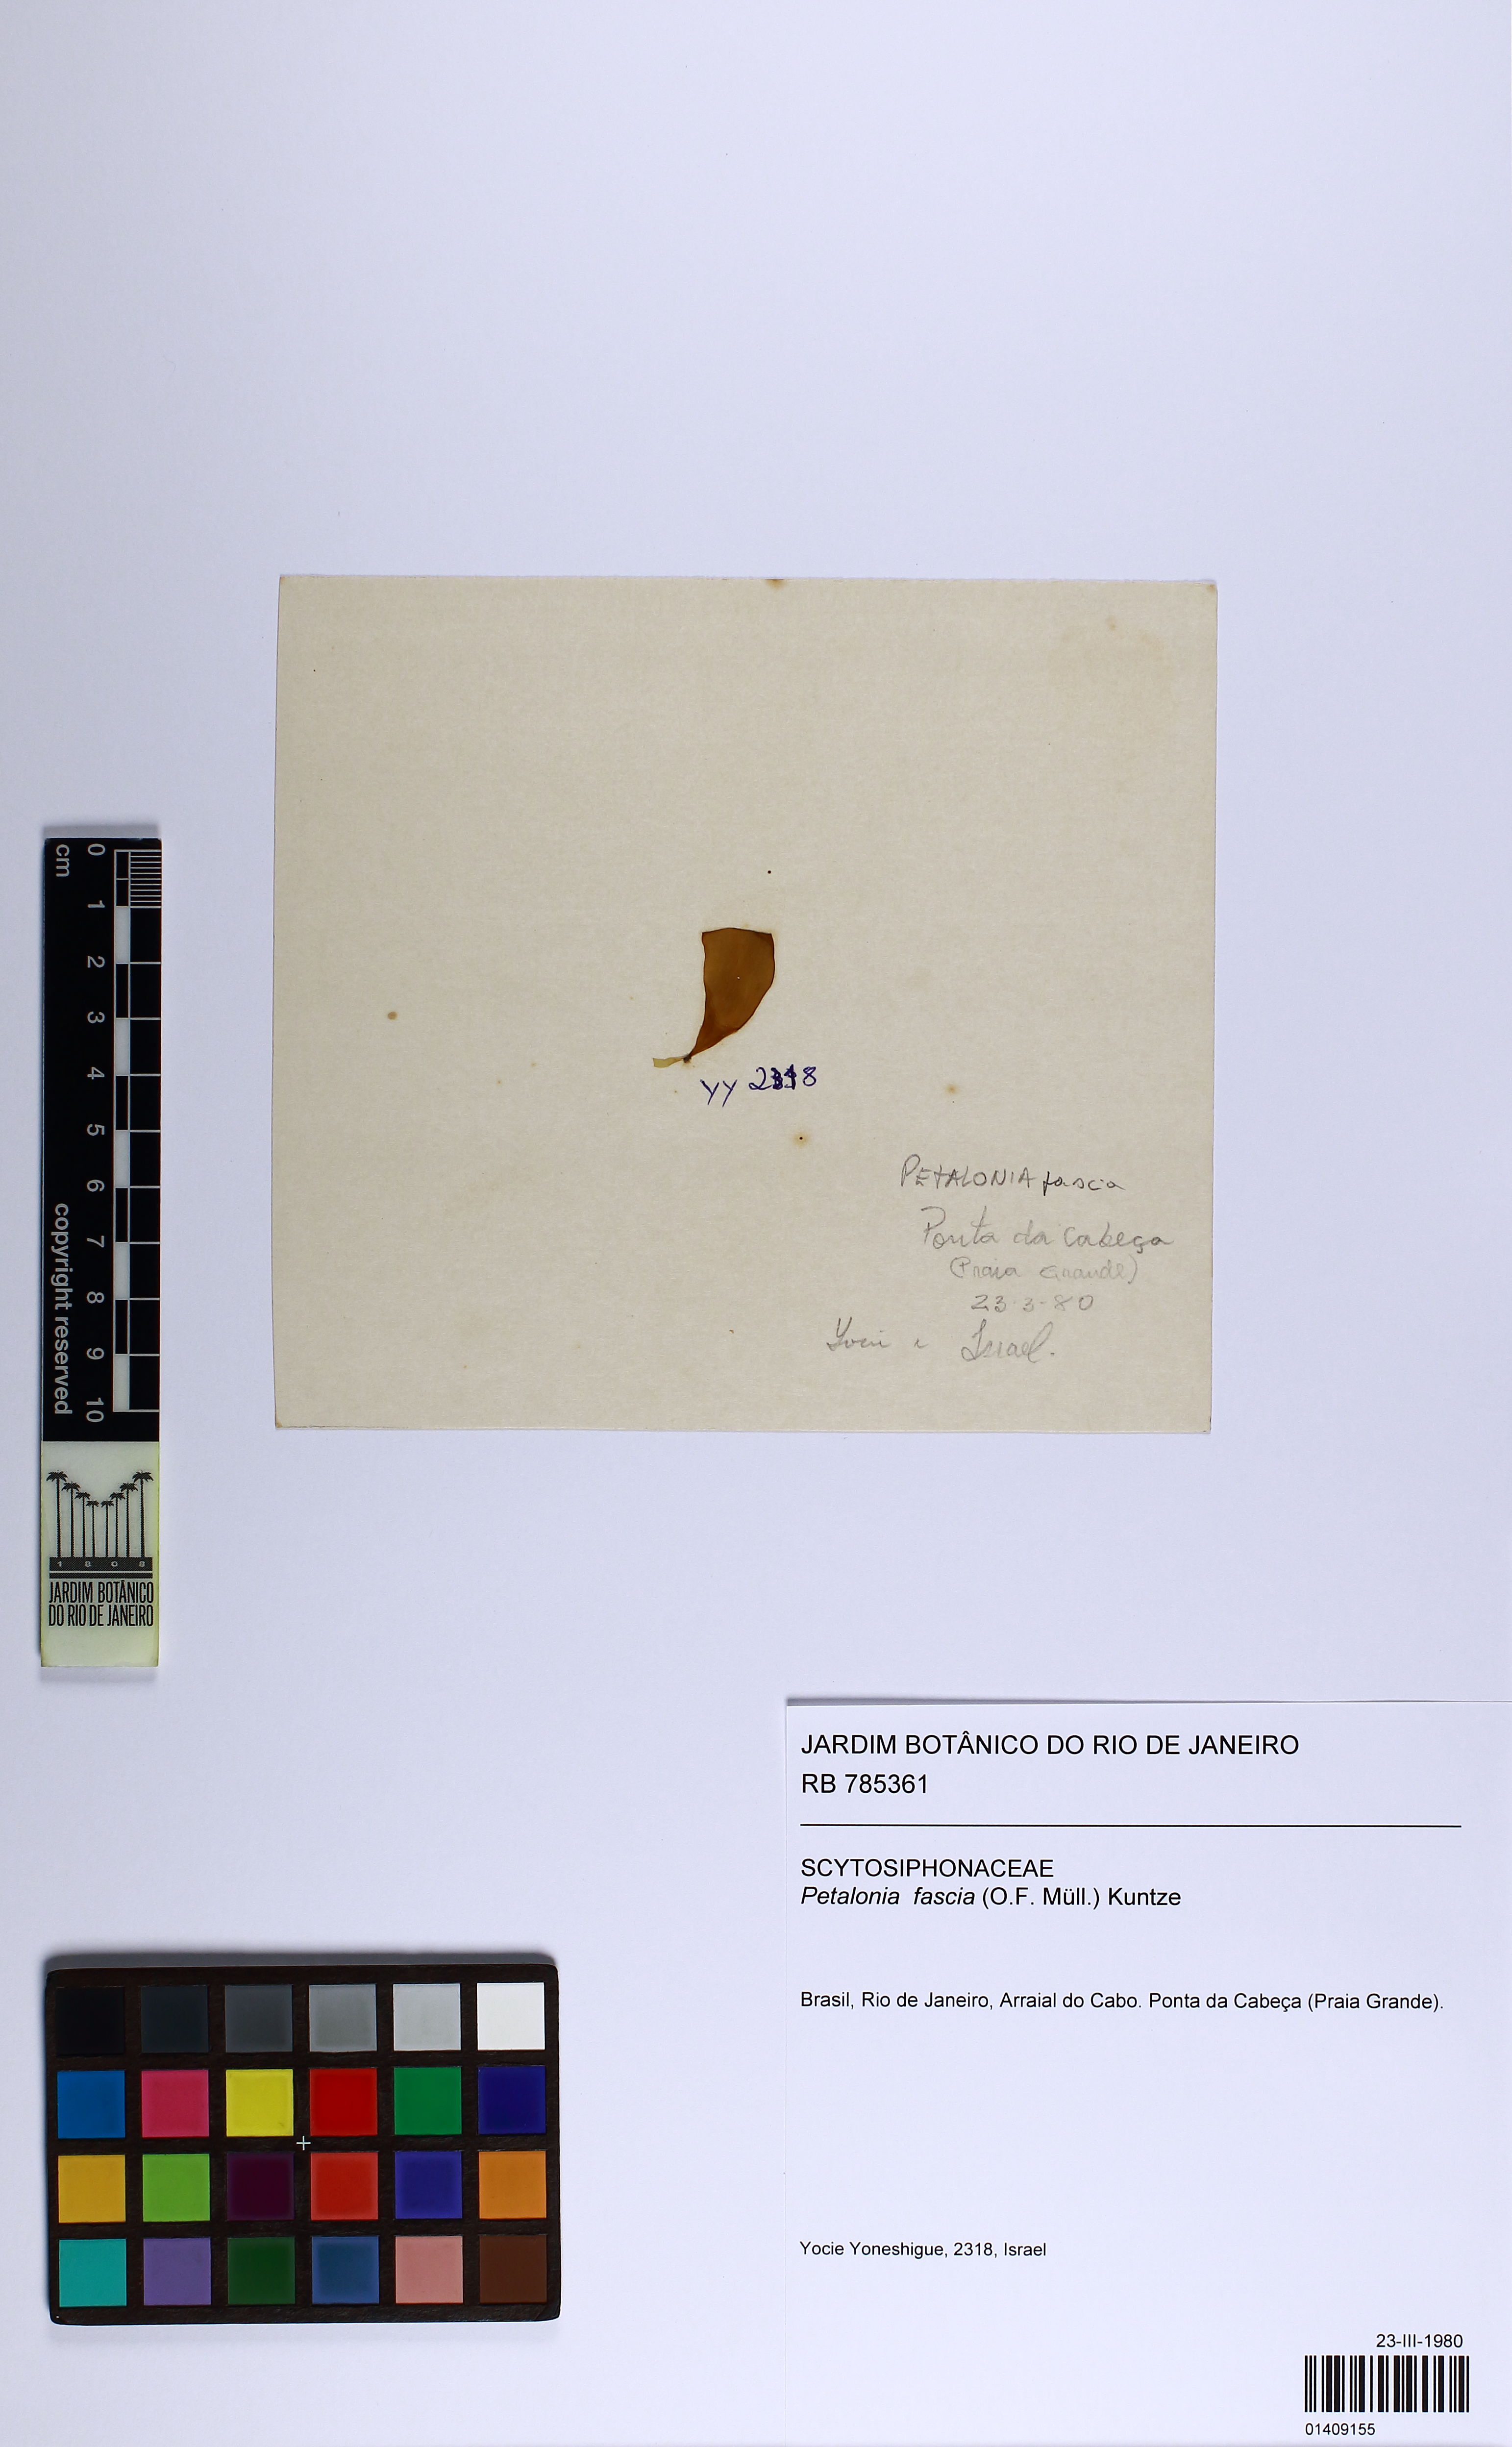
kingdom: Chromista
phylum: Ochrophyta
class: Phaeophyceae
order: Scytosiphonales
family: Scytosiphonaceae
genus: Petalonia
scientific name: Petalonia fascia
